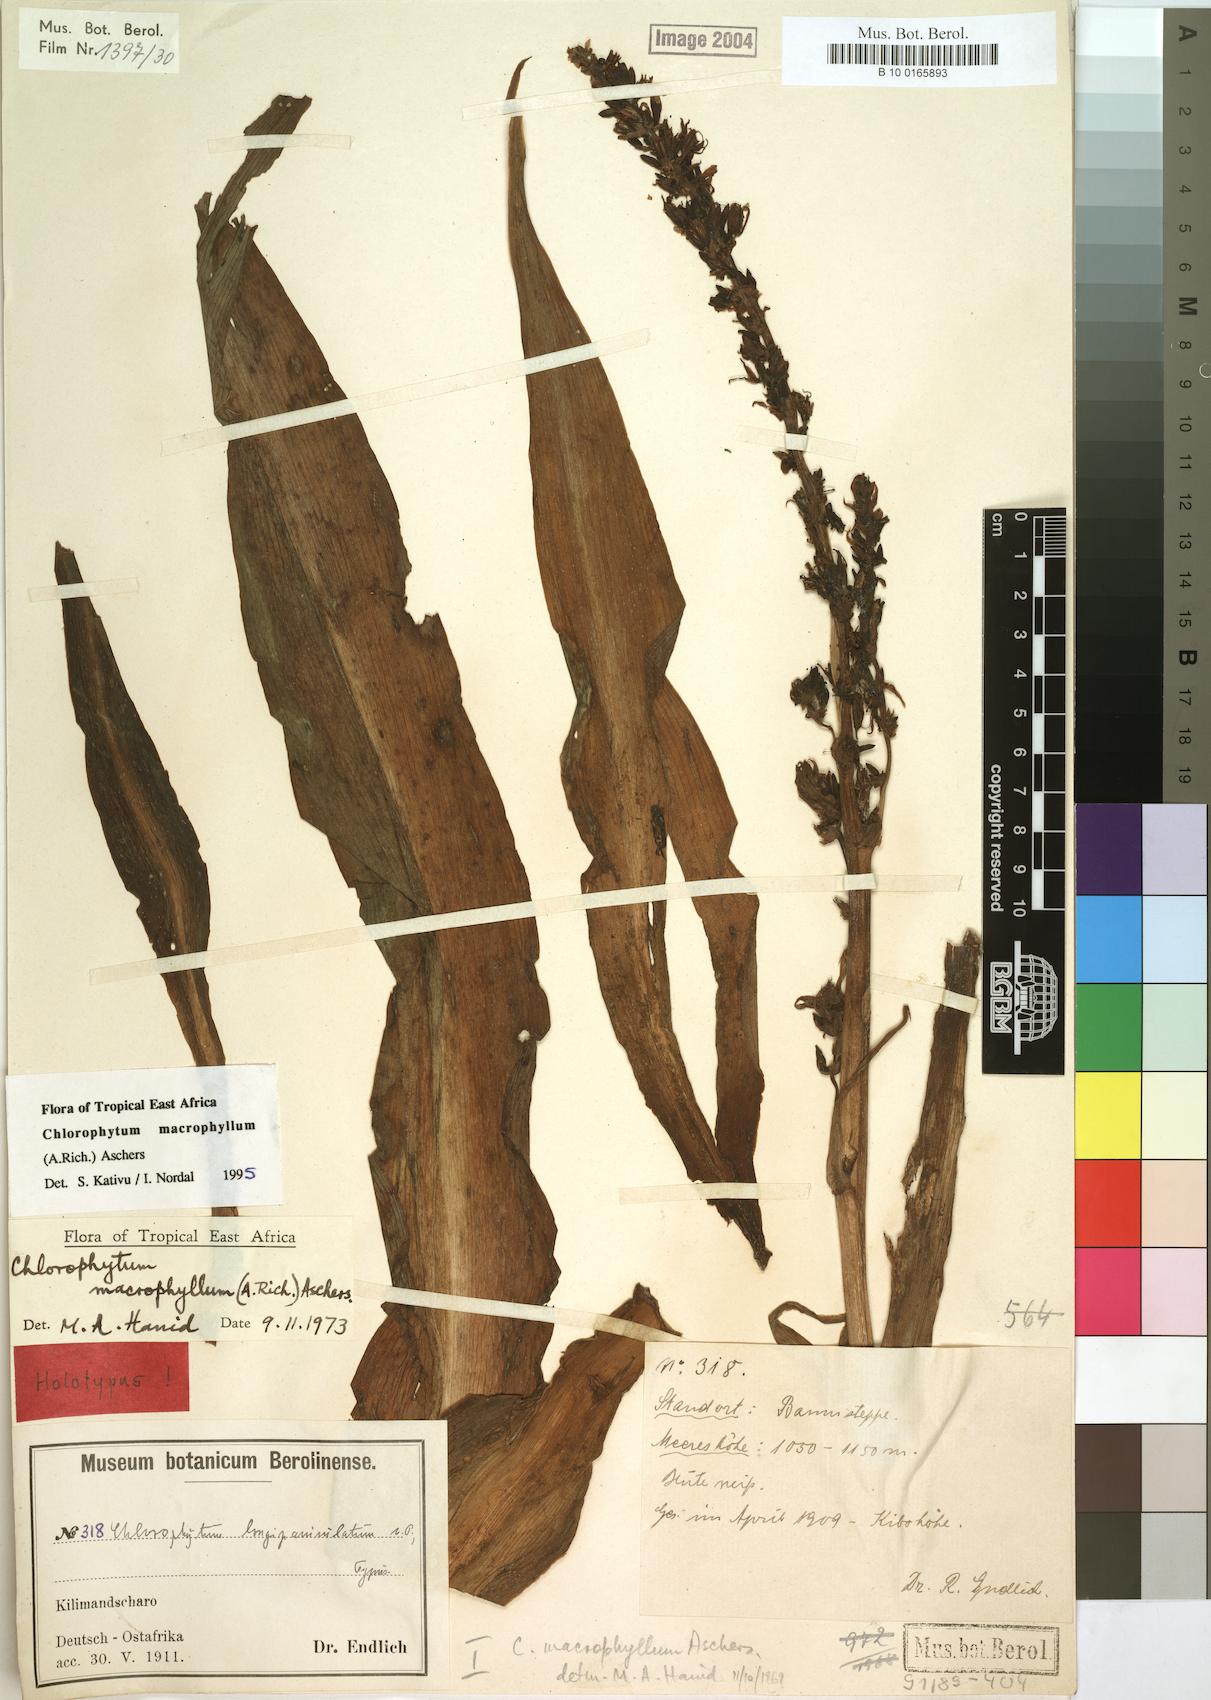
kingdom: Plantae
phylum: Tracheophyta
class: Liliopsida
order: Asparagales
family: Asparagaceae
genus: Chlorophytum
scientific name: Chlorophytum macrophyllum
